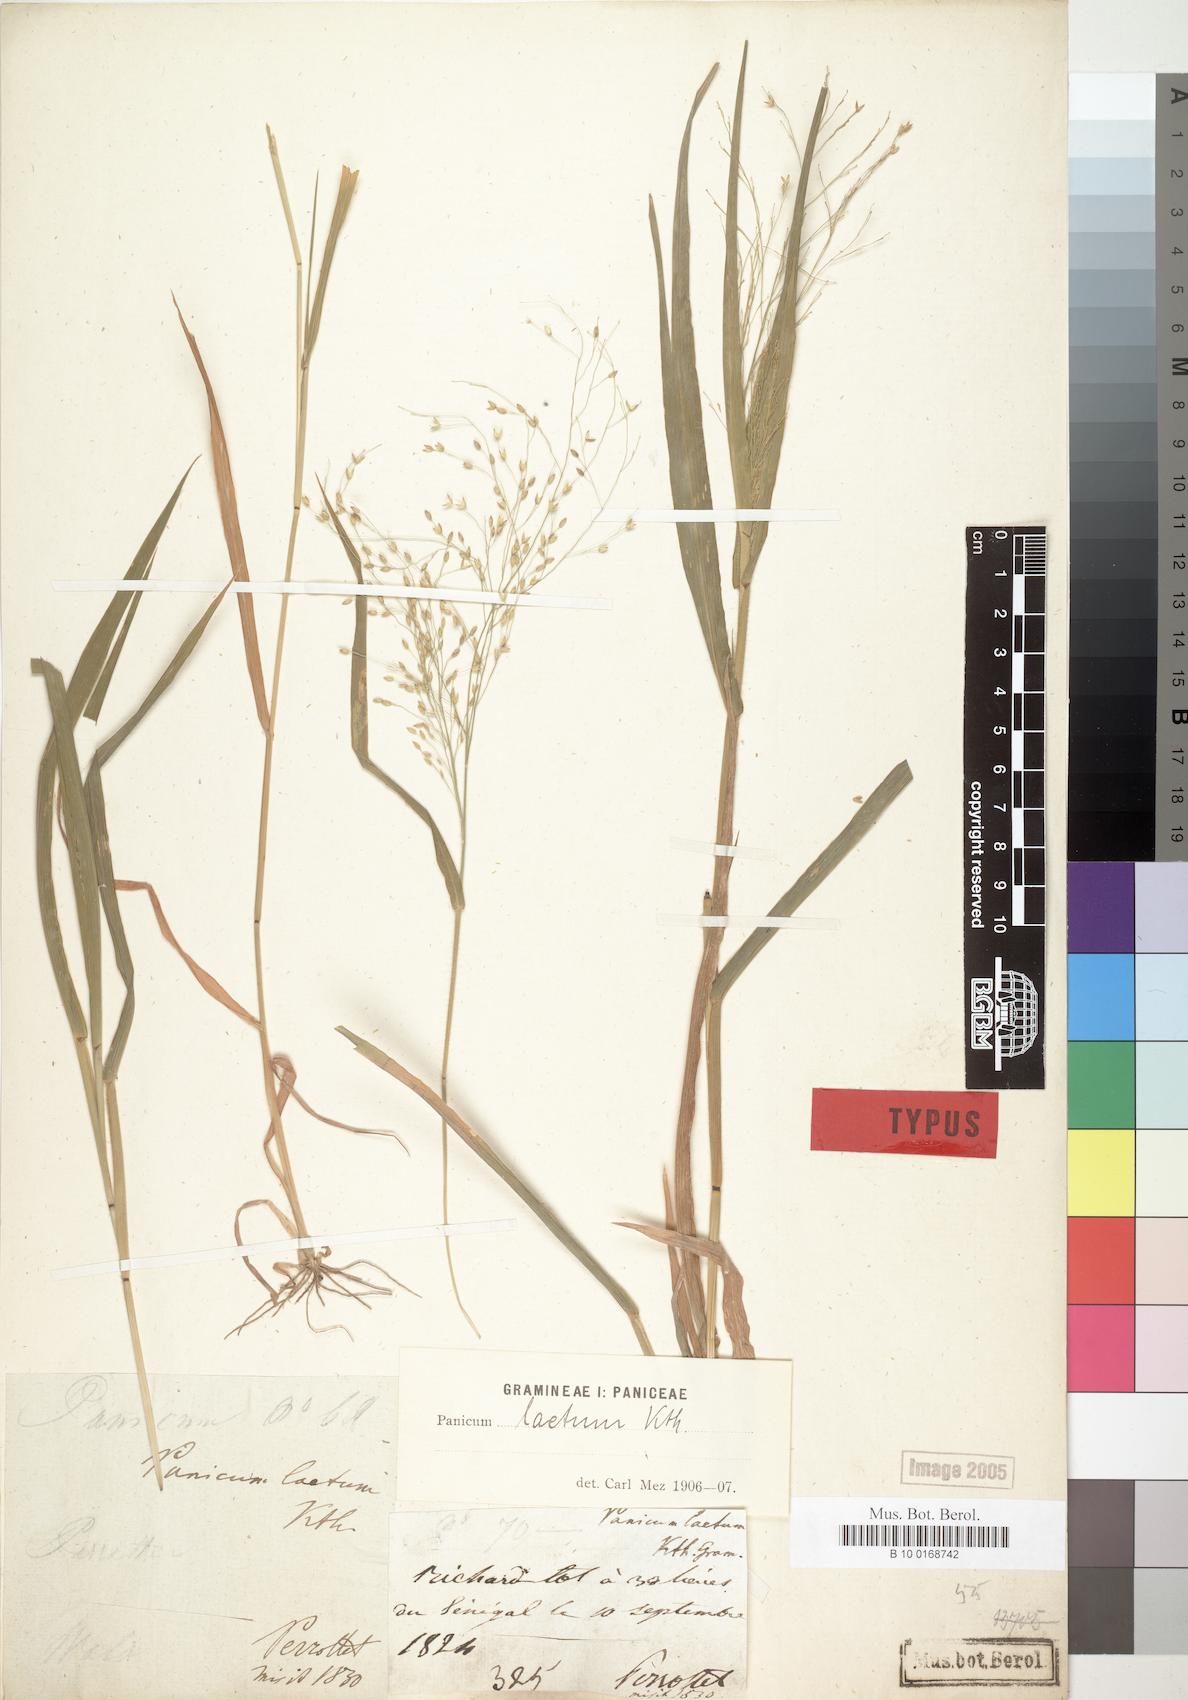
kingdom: Plantae
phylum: Tracheophyta
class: Liliopsida
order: Poales
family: Poaceae
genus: Panicum
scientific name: Panicum laetum
